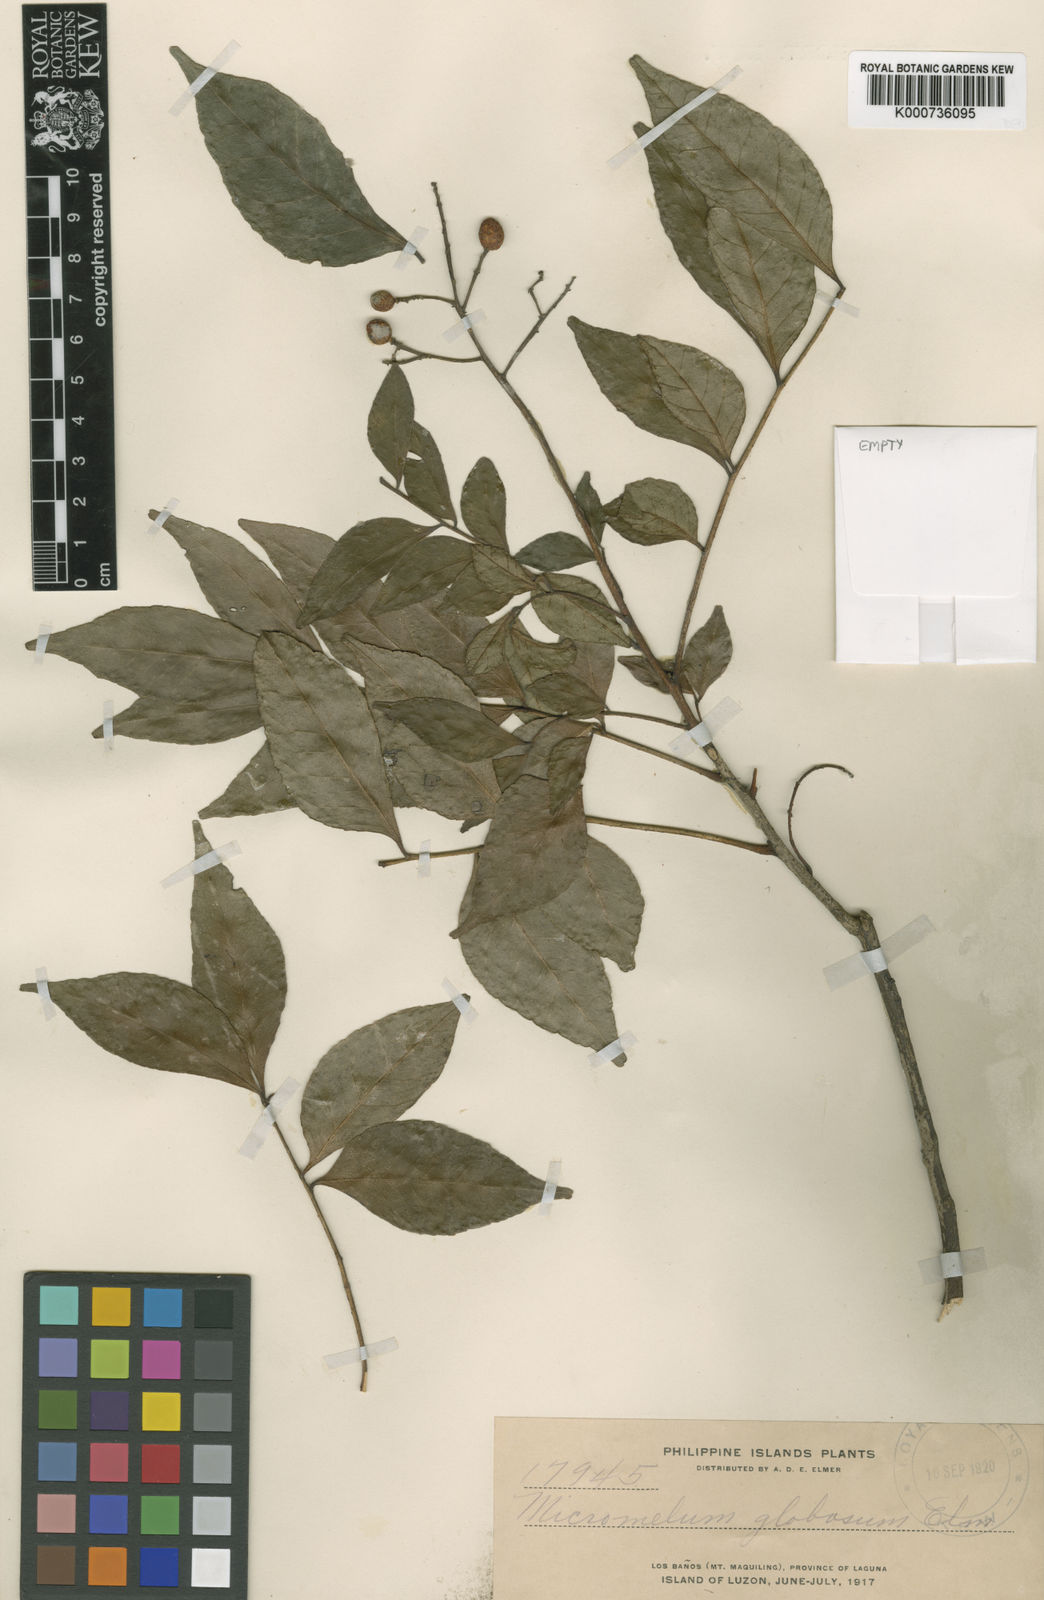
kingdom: Plantae
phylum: Tracheophyta
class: Magnoliopsida
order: Sapindales
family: Rutaceae
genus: Murraya
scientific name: Murraya crenulata
